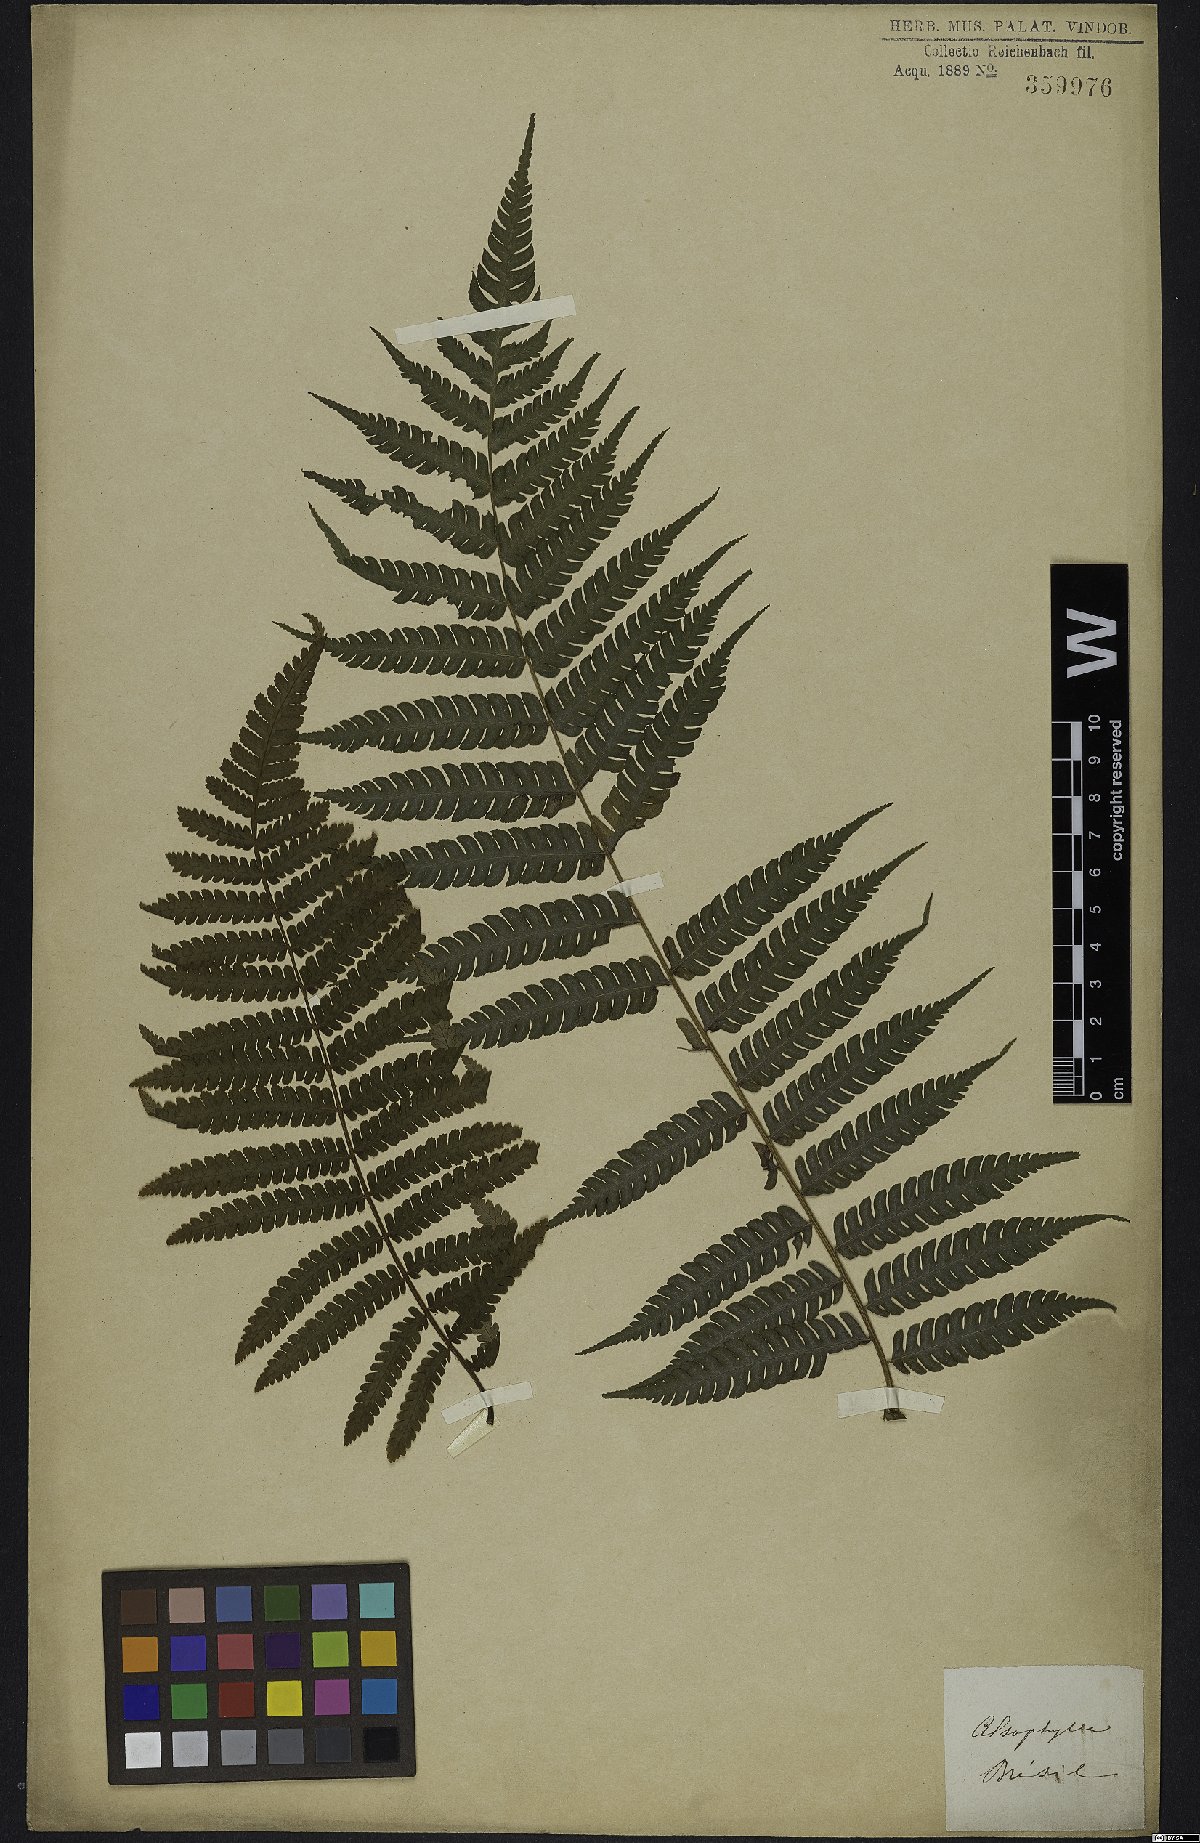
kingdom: Plantae
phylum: Tracheophyta
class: Polypodiopsida
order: Cyatheales
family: Cyatheaceae
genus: Alsophila
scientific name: Alsophila
